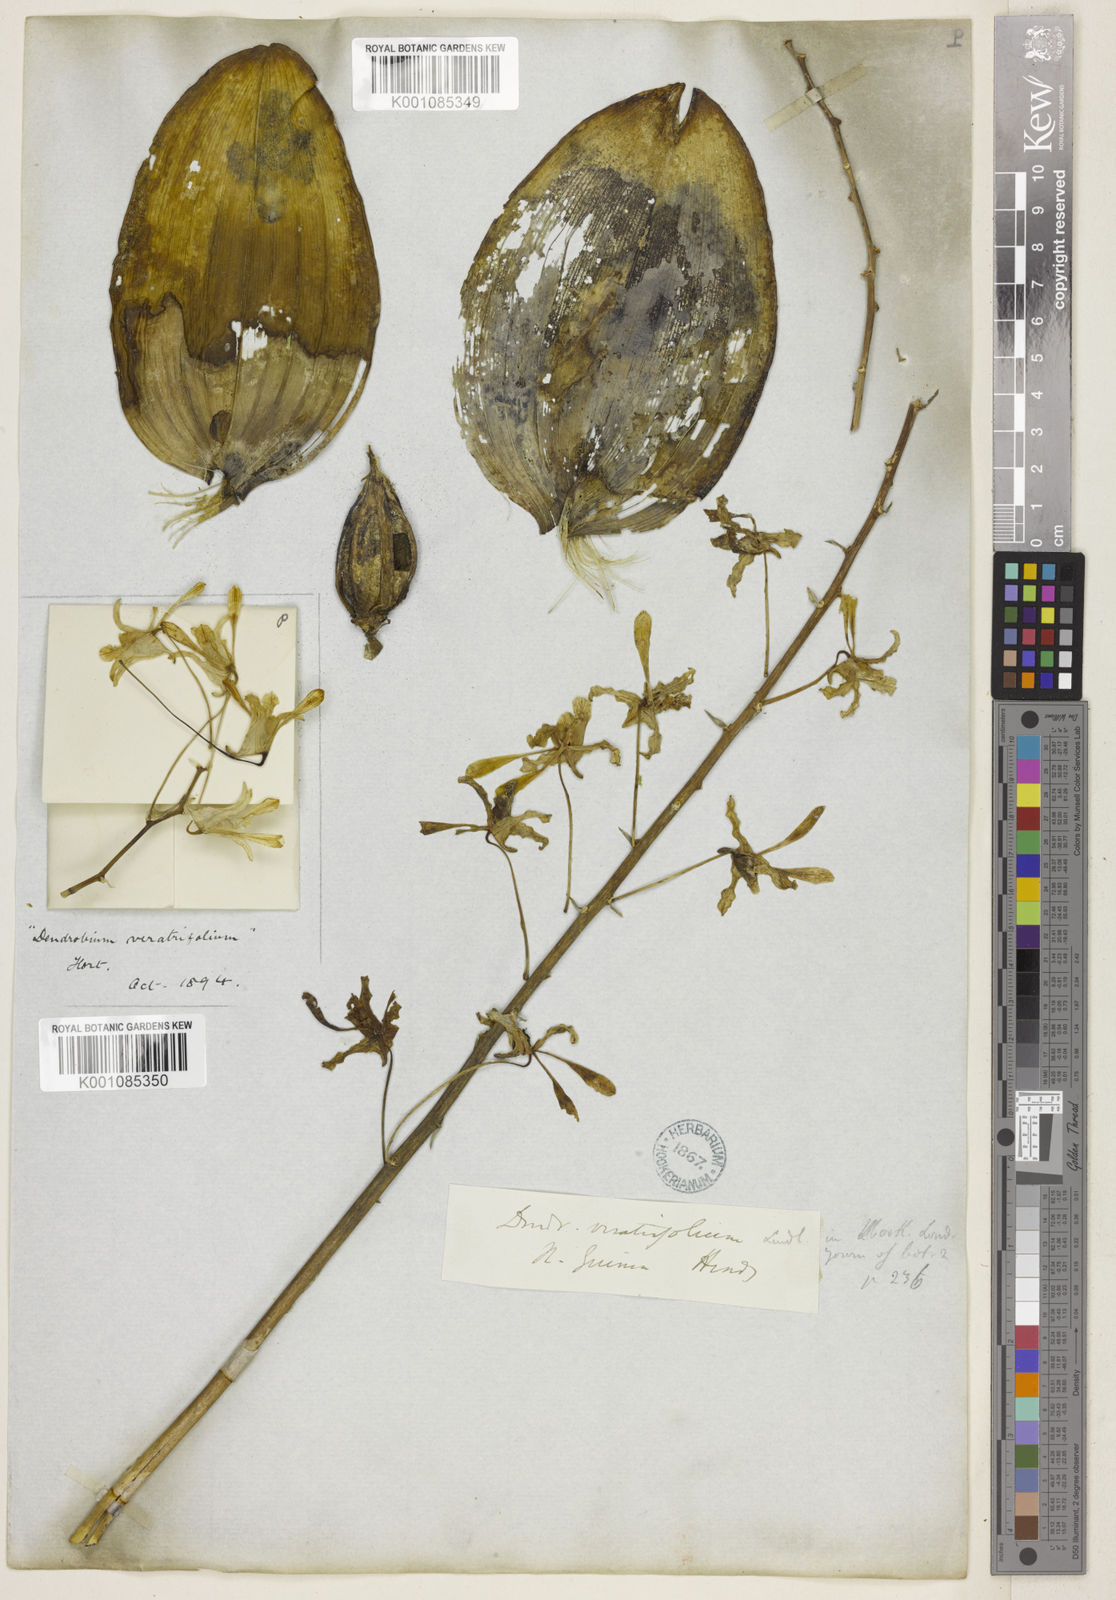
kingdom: Plantae
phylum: Tracheophyta
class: Liliopsida
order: Asparagales
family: Orchidaceae
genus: Dendrobium
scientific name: Dendrobium lineale
